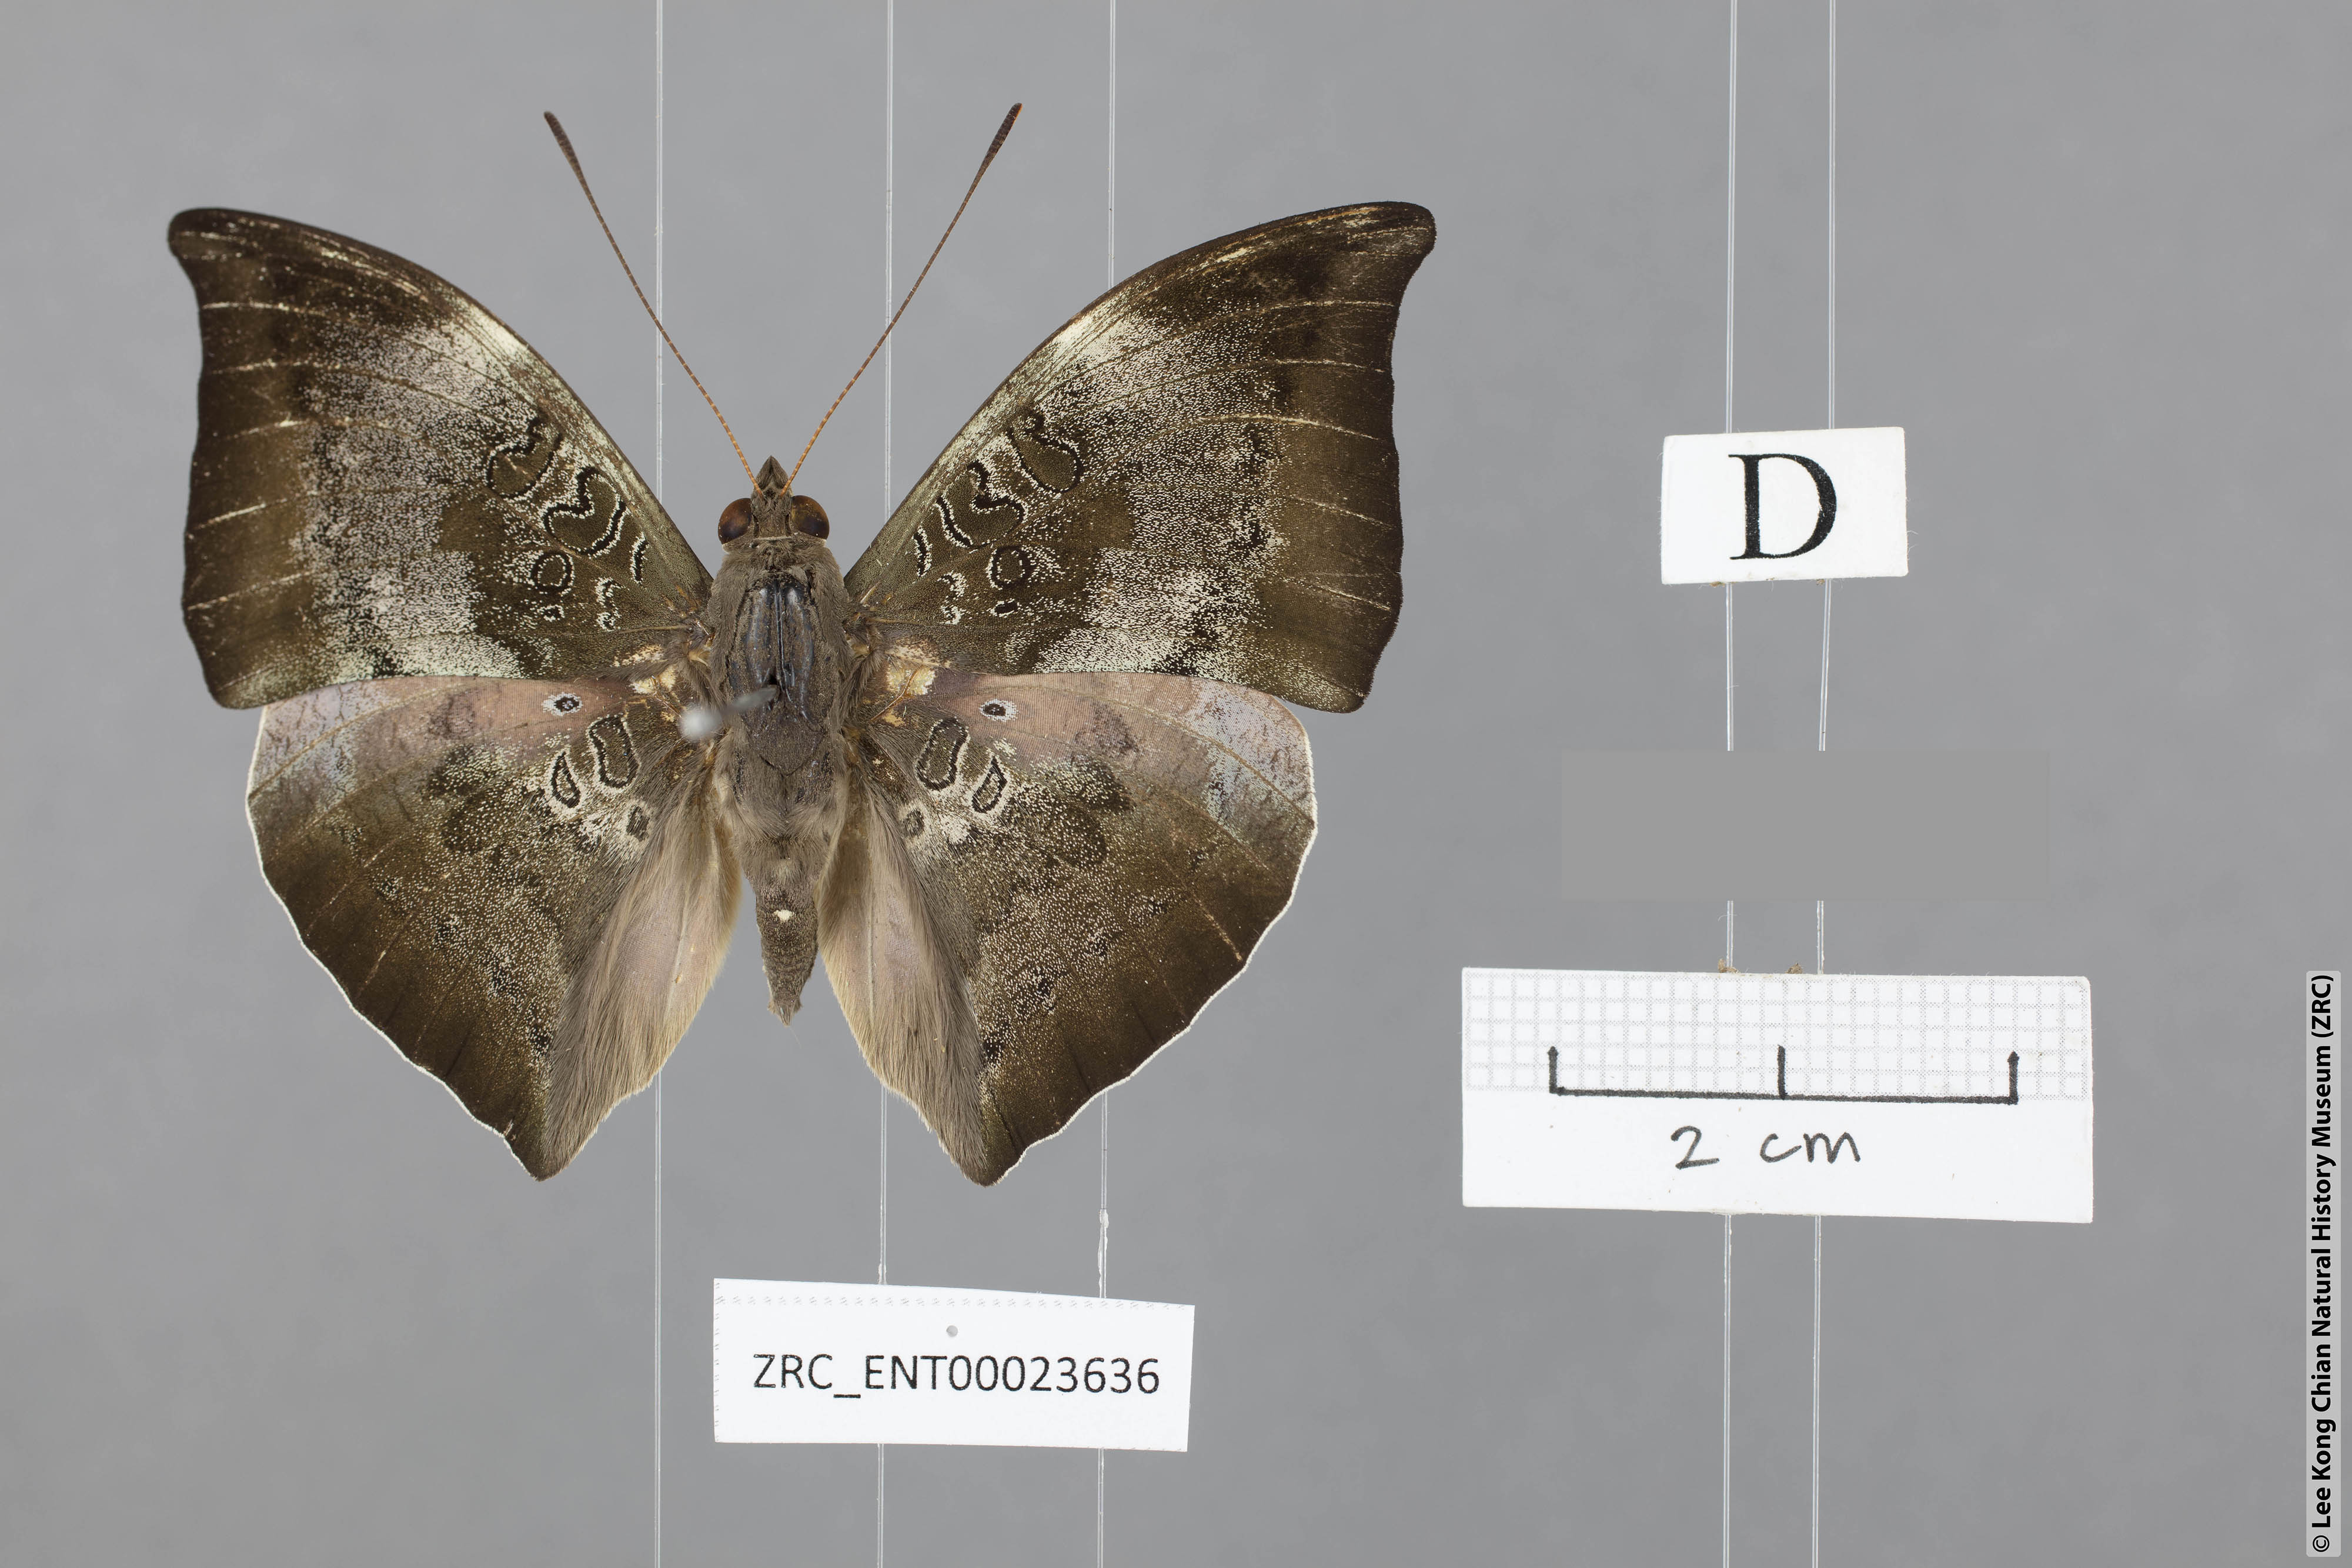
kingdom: Animalia
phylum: Arthropoda
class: Insecta
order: Lepidoptera
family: Nymphalidae
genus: Euthalia
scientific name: Euthalia anosia
